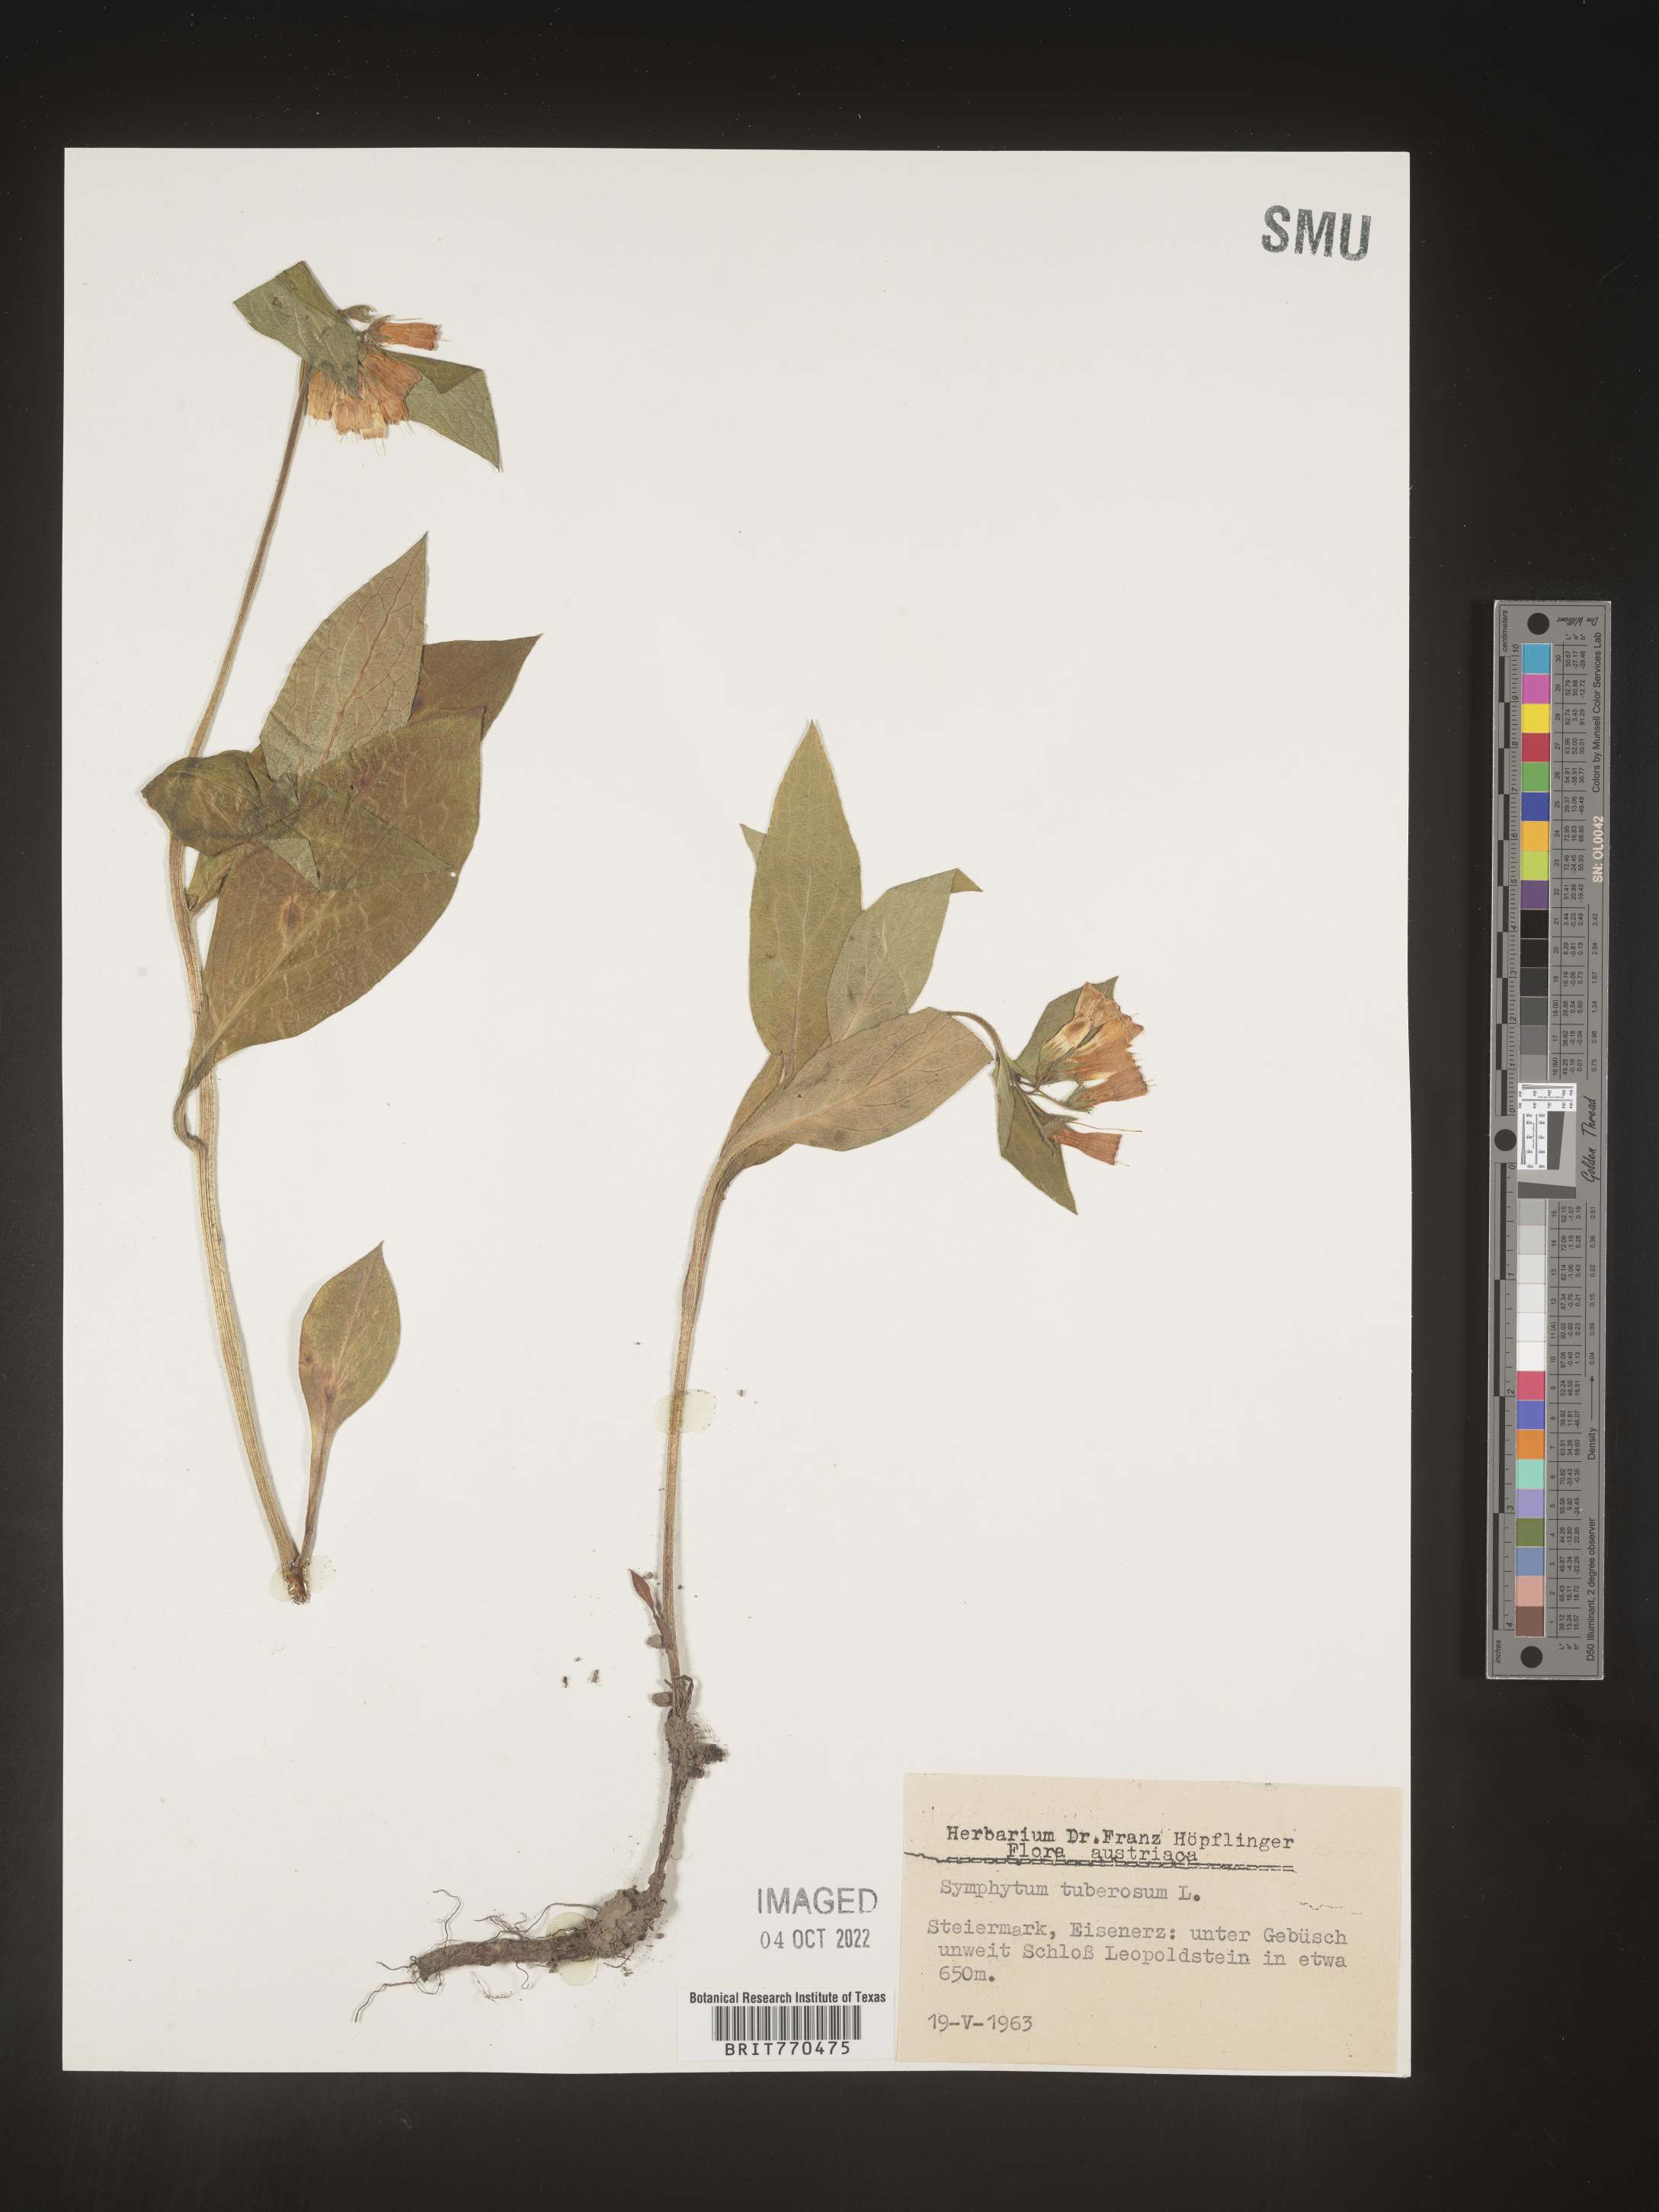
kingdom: Plantae
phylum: Tracheophyta
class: Magnoliopsida
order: Boraginales
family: Boraginaceae
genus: Symphytum
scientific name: Symphytum
